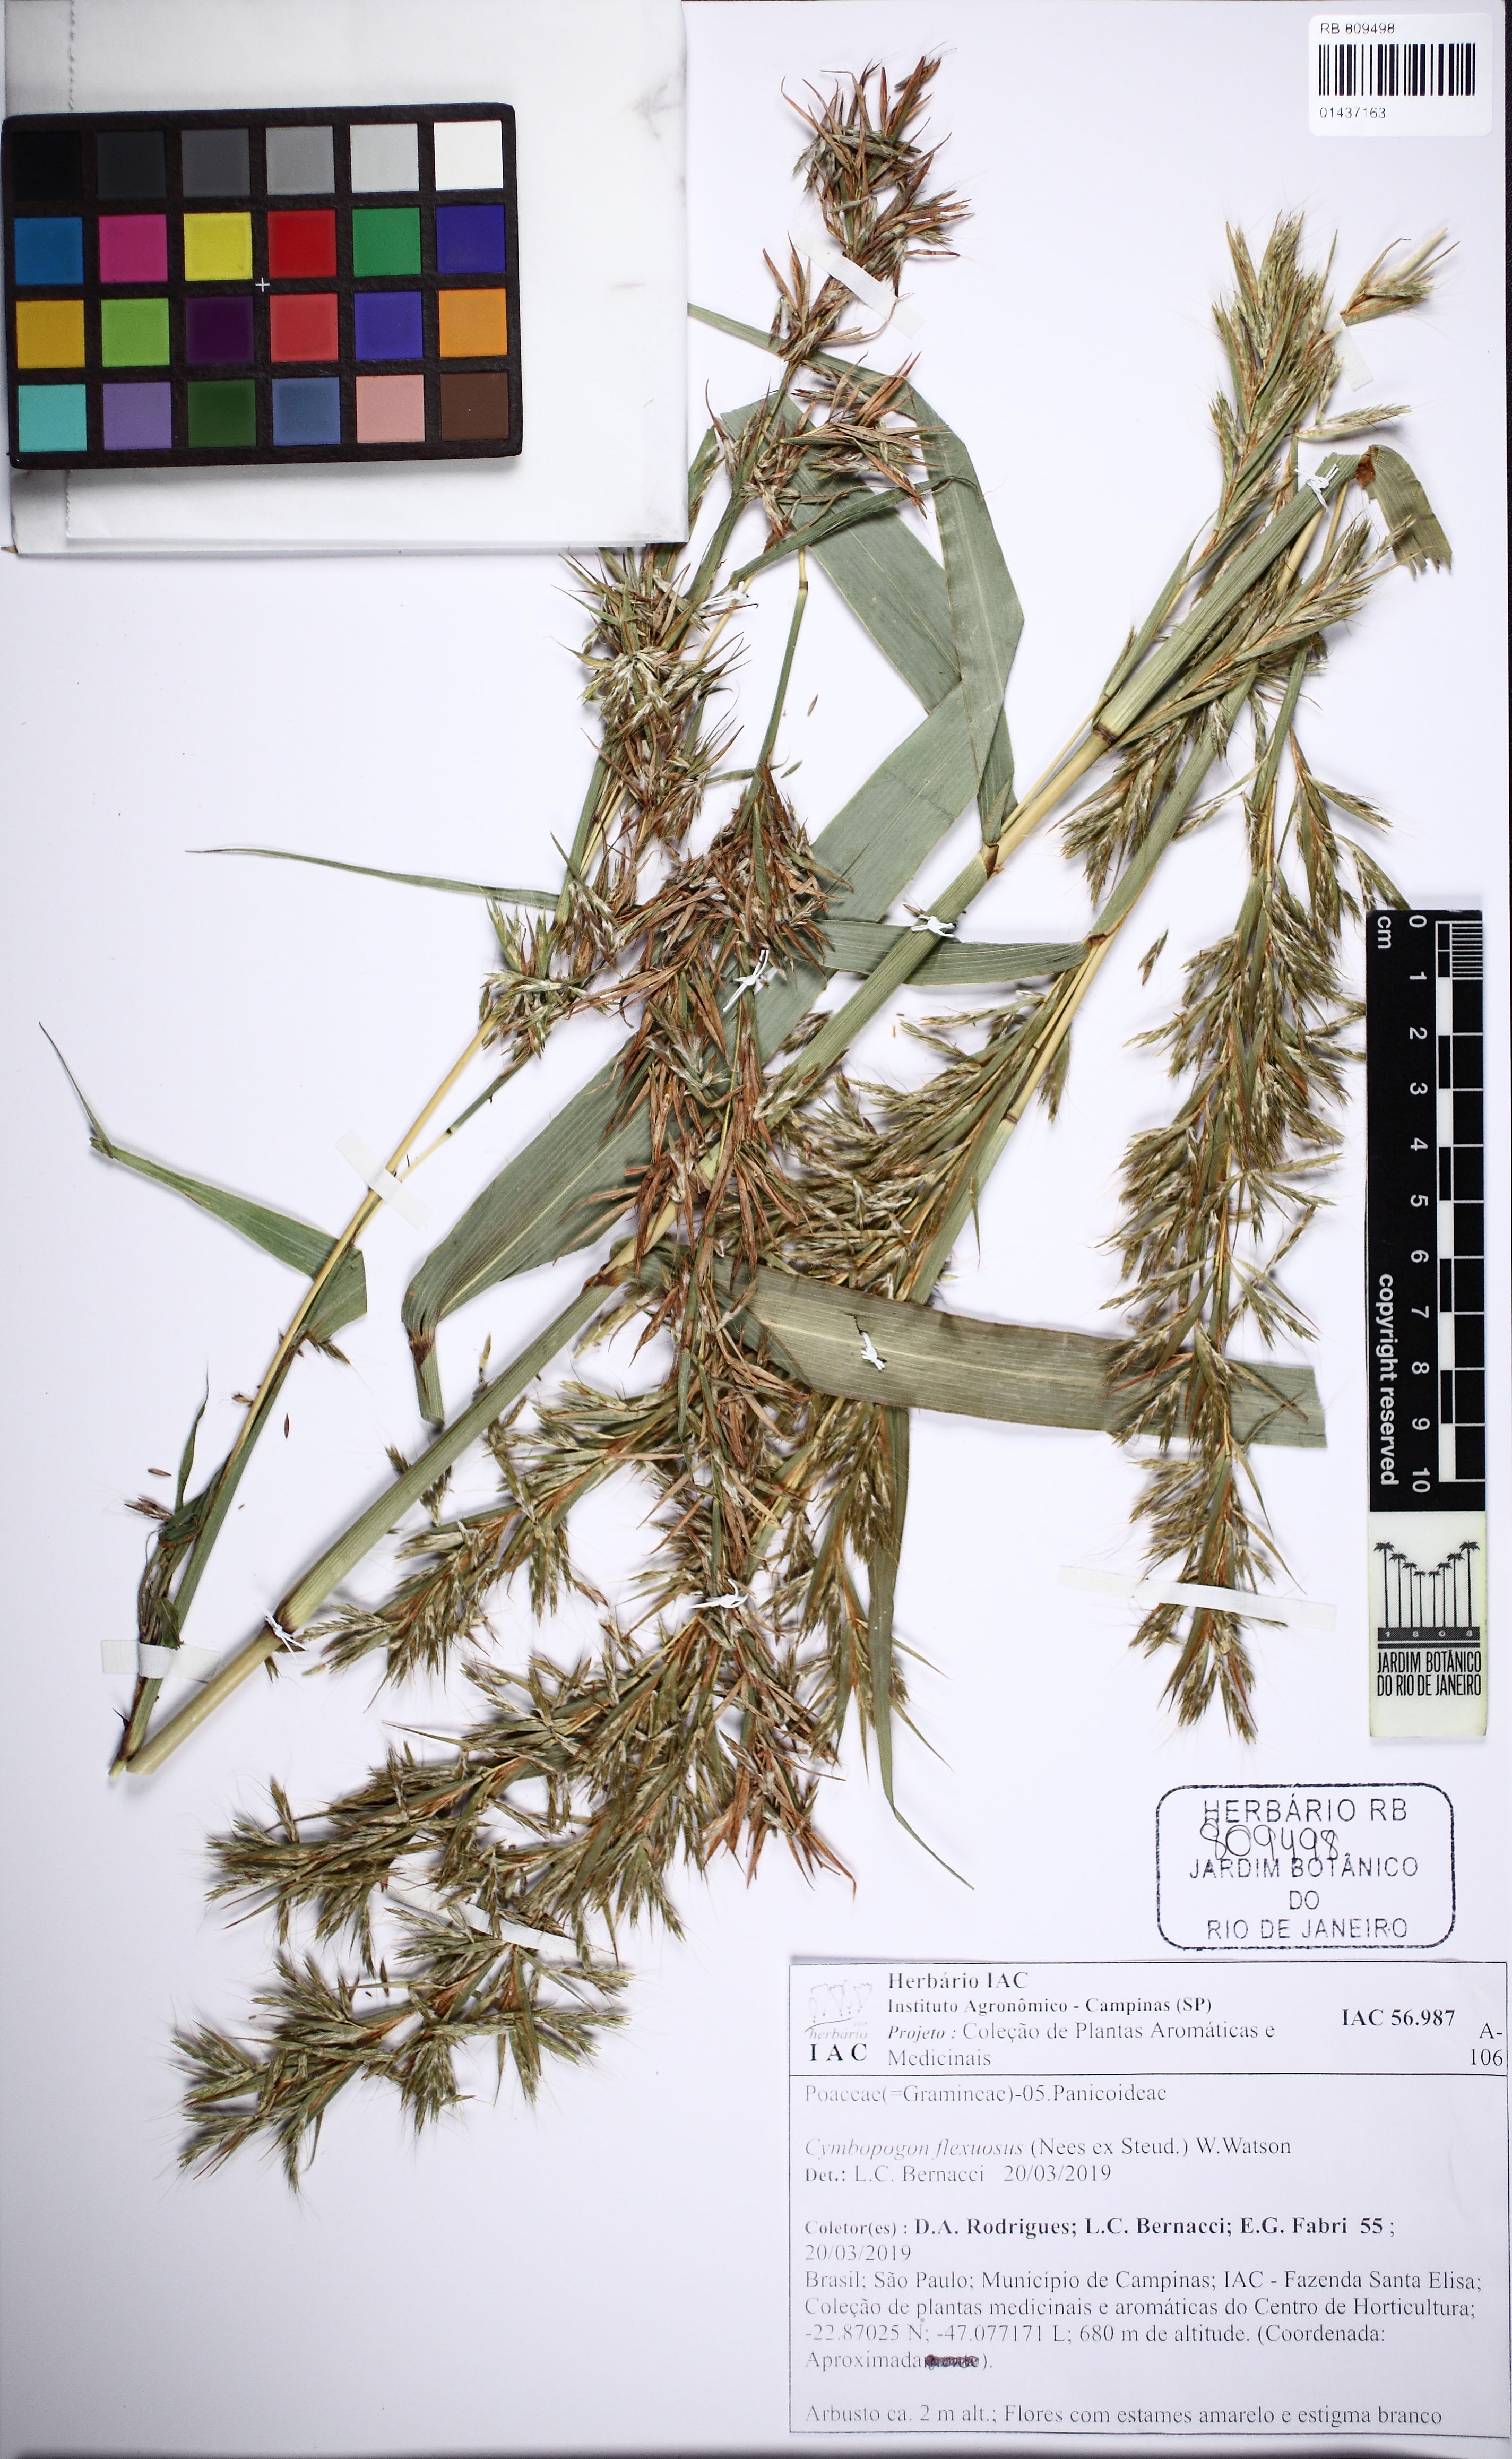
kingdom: Plantae
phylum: Tracheophyta
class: Liliopsida
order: Poales
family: Poaceae
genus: Cymbopogon
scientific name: Cymbopogon flexuosus
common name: East indian lemongrass
